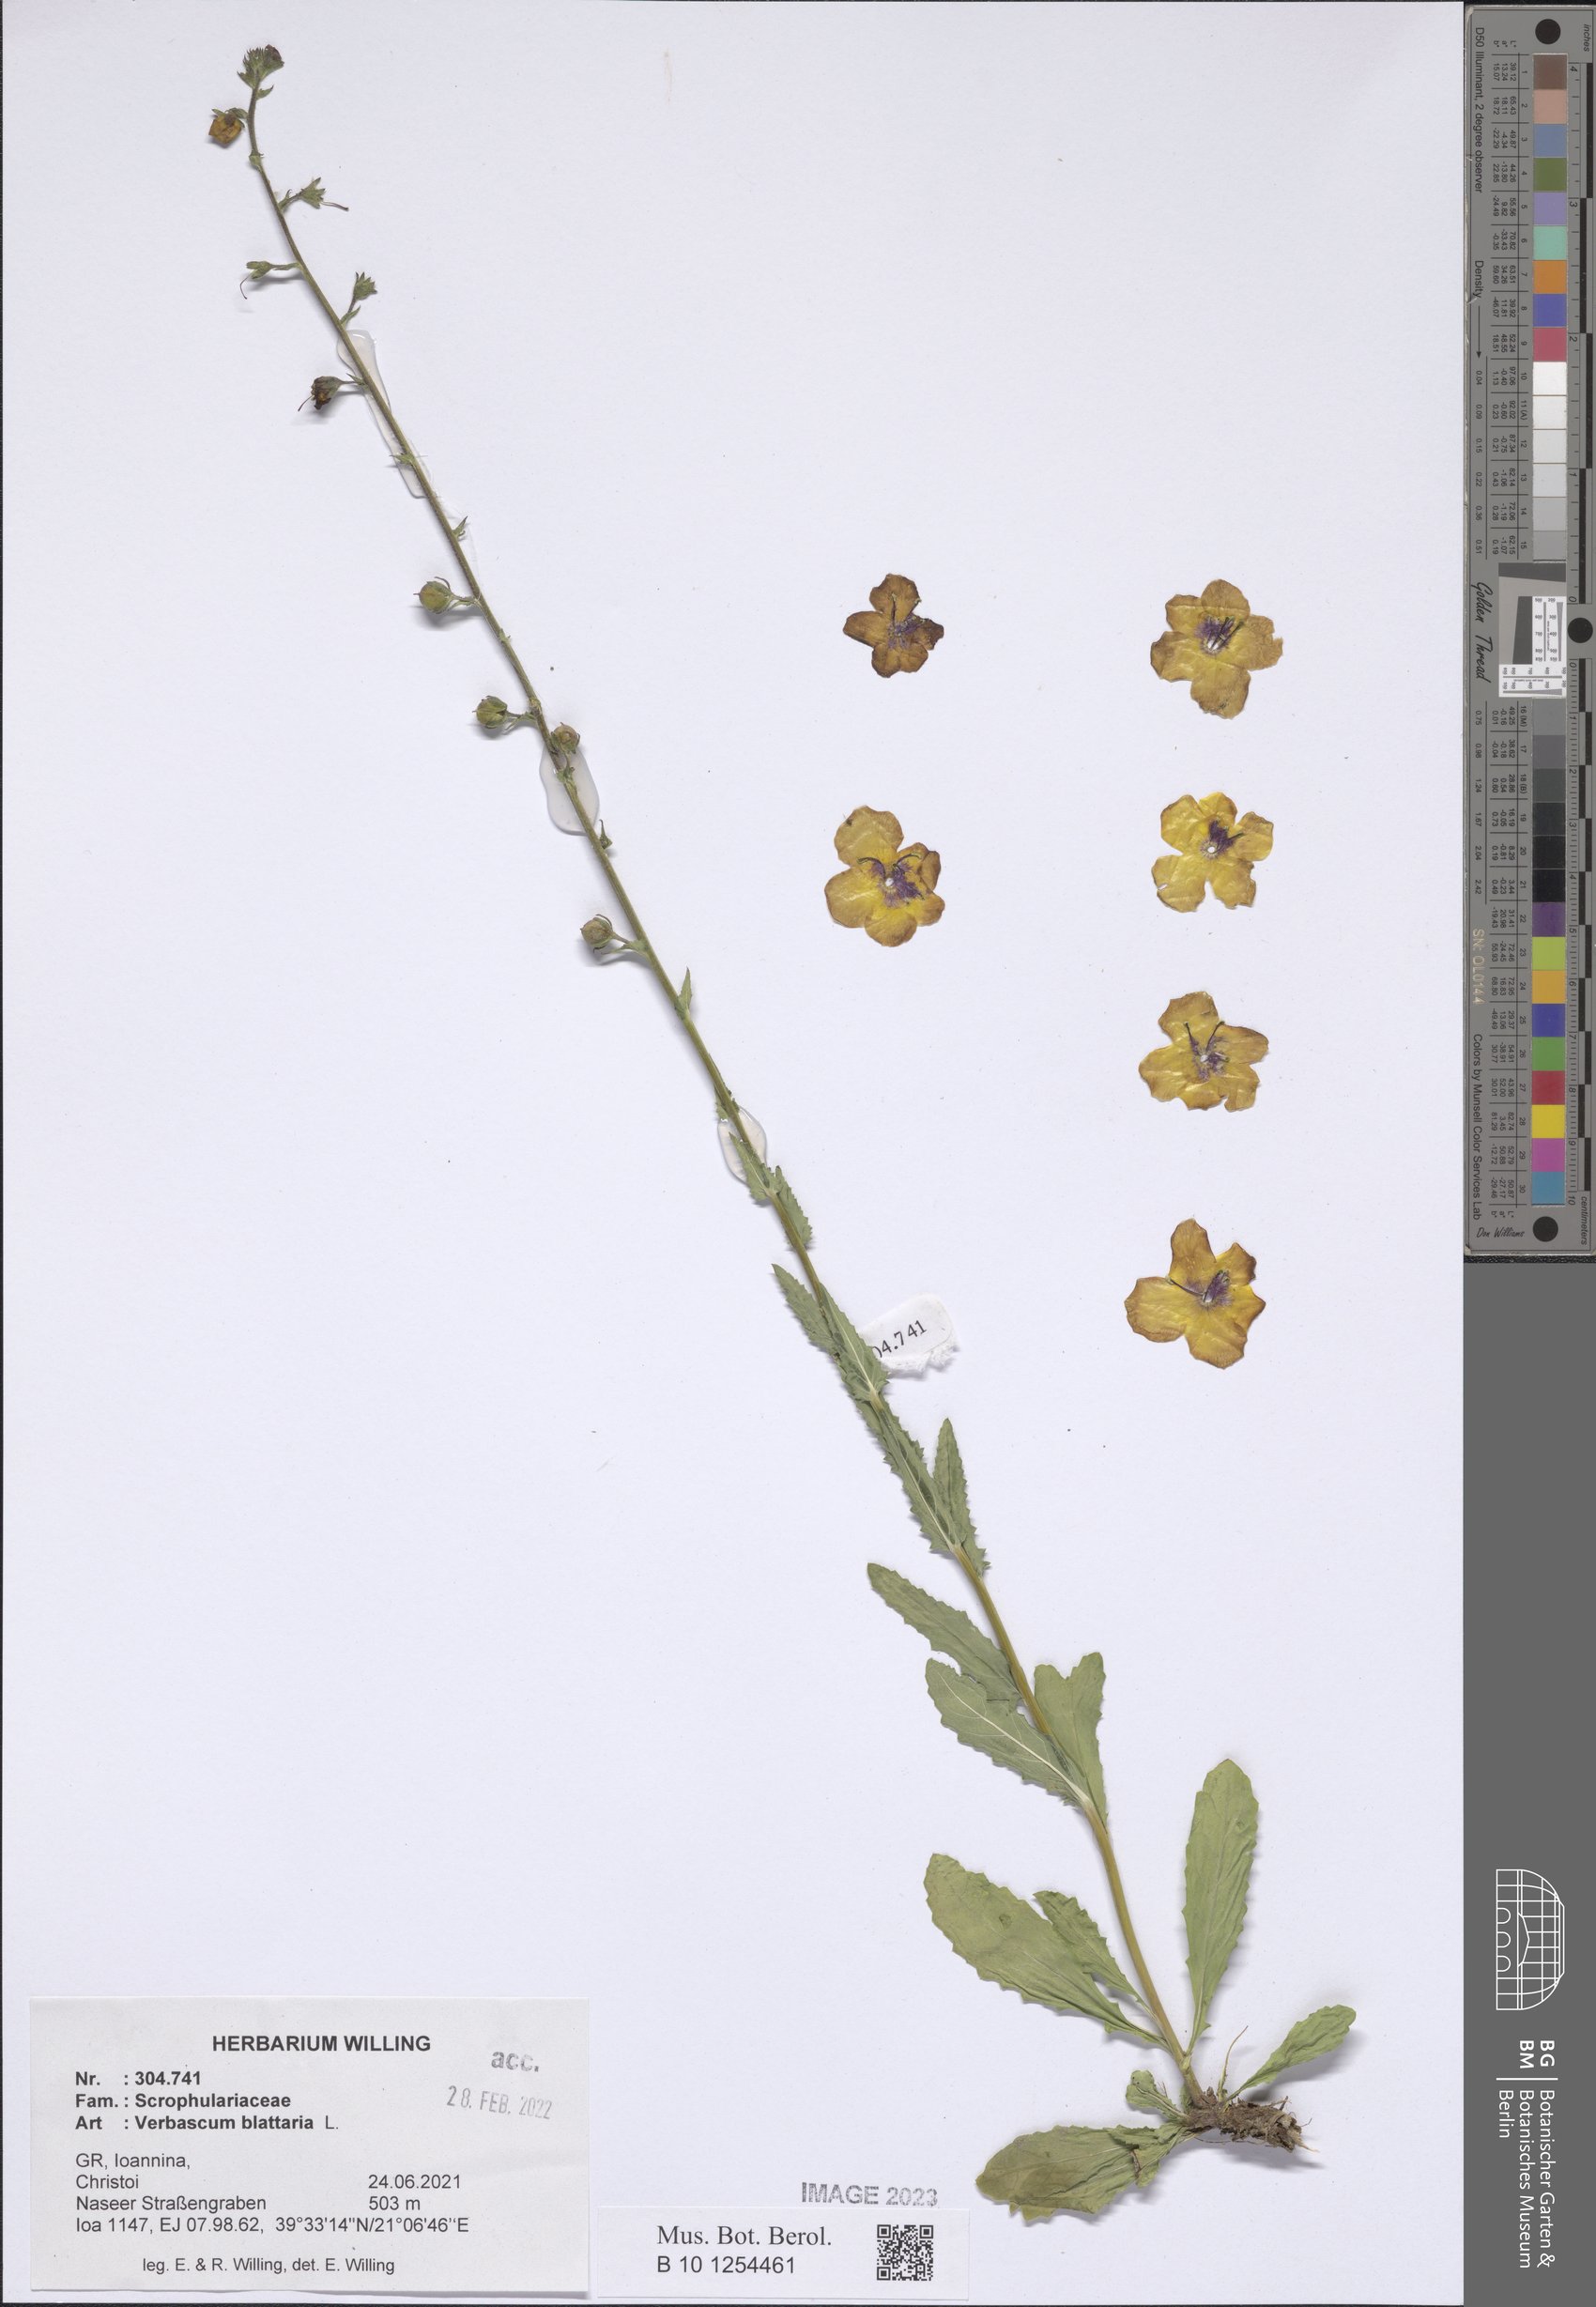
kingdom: Plantae
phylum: Tracheophyta
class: Magnoliopsida
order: Lamiales
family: Scrophulariaceae
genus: Verbascum
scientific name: Verbascum blattaria
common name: Moth mullein
